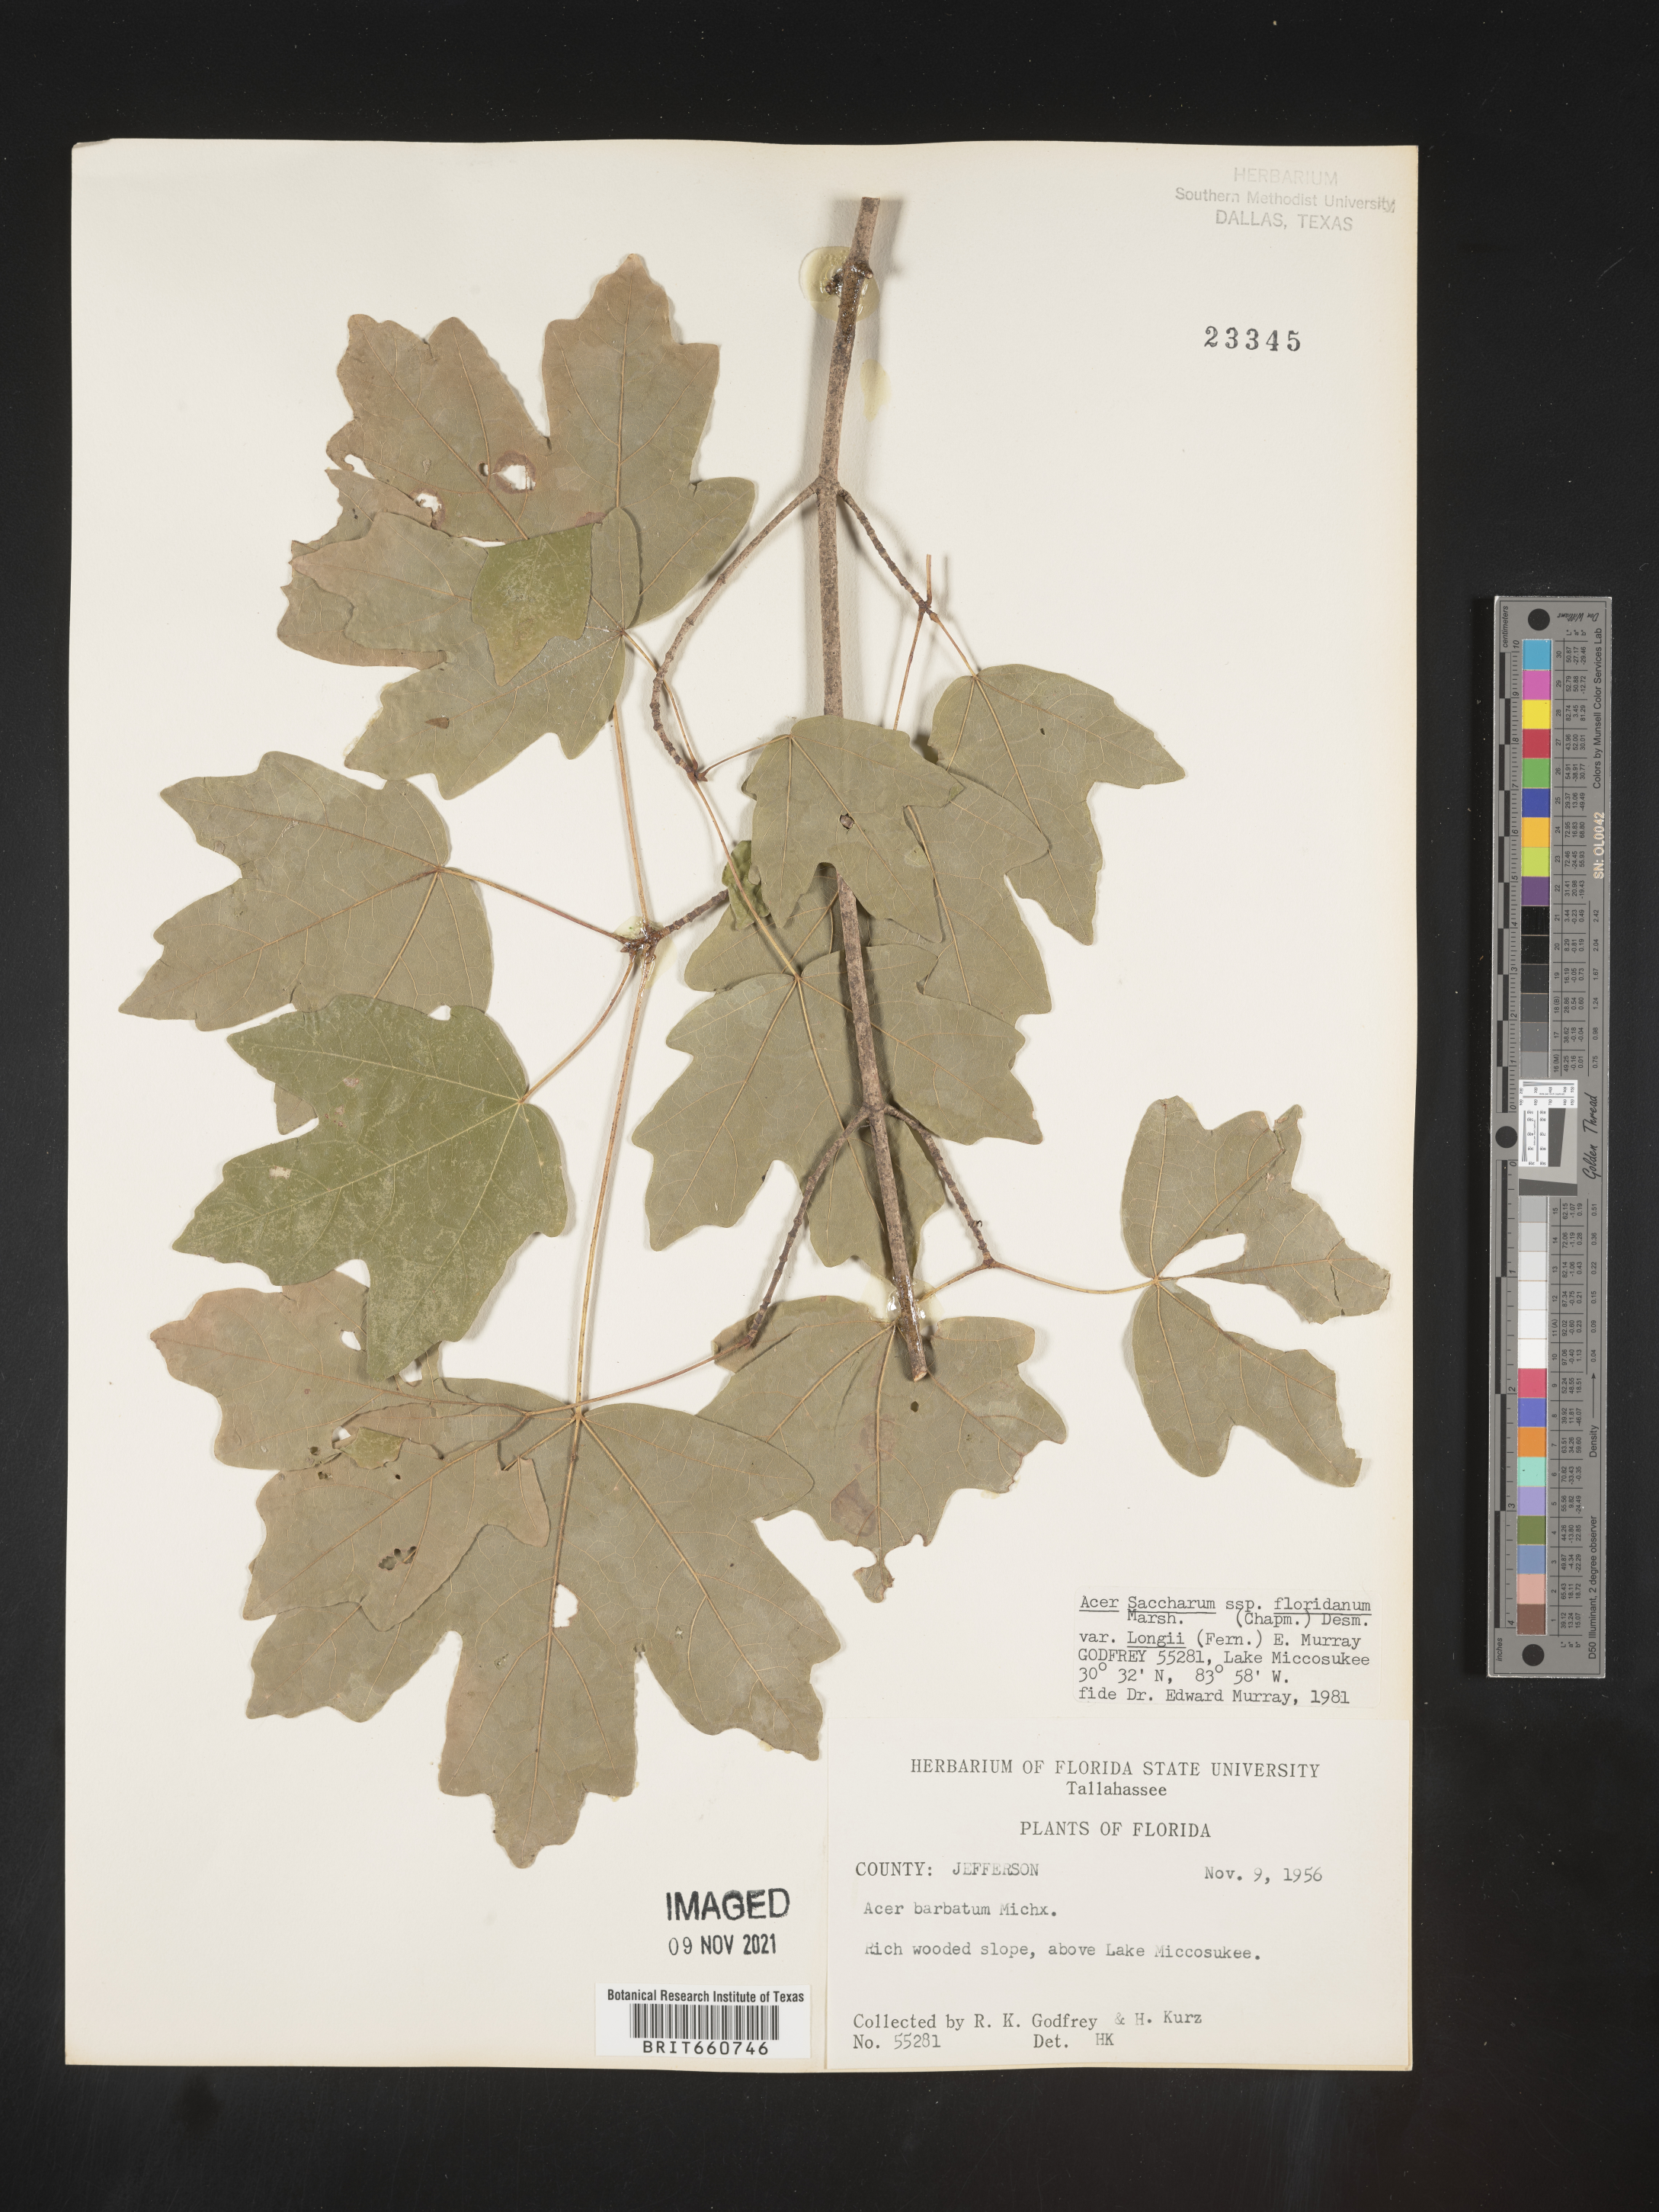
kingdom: Plantae
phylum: Tracheophyta
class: Magnoliopsida
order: Sapindales
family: Sapindaceae
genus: Acer
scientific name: Acer barbatum
